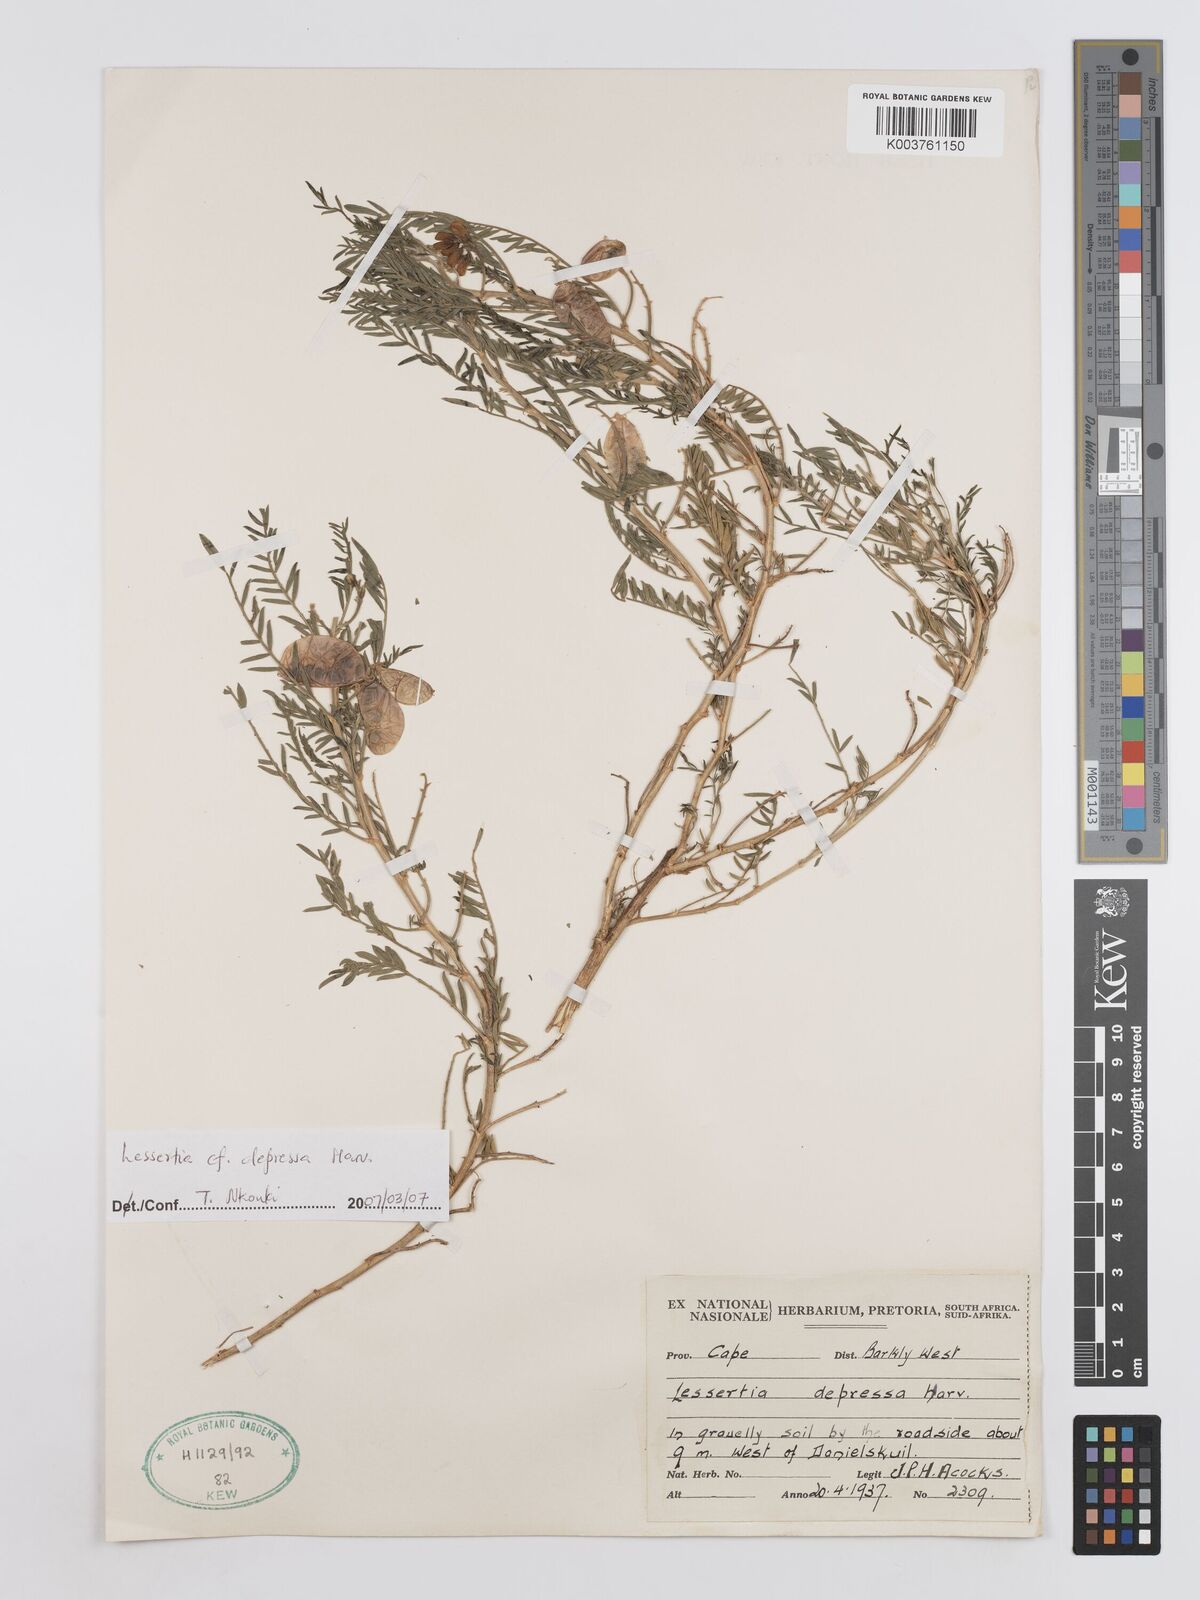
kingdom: Plantae
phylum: Tracheophyta
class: Magnoliopsida
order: Fabales
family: Fabaceae
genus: Lessertia
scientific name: Lessertia depressa
